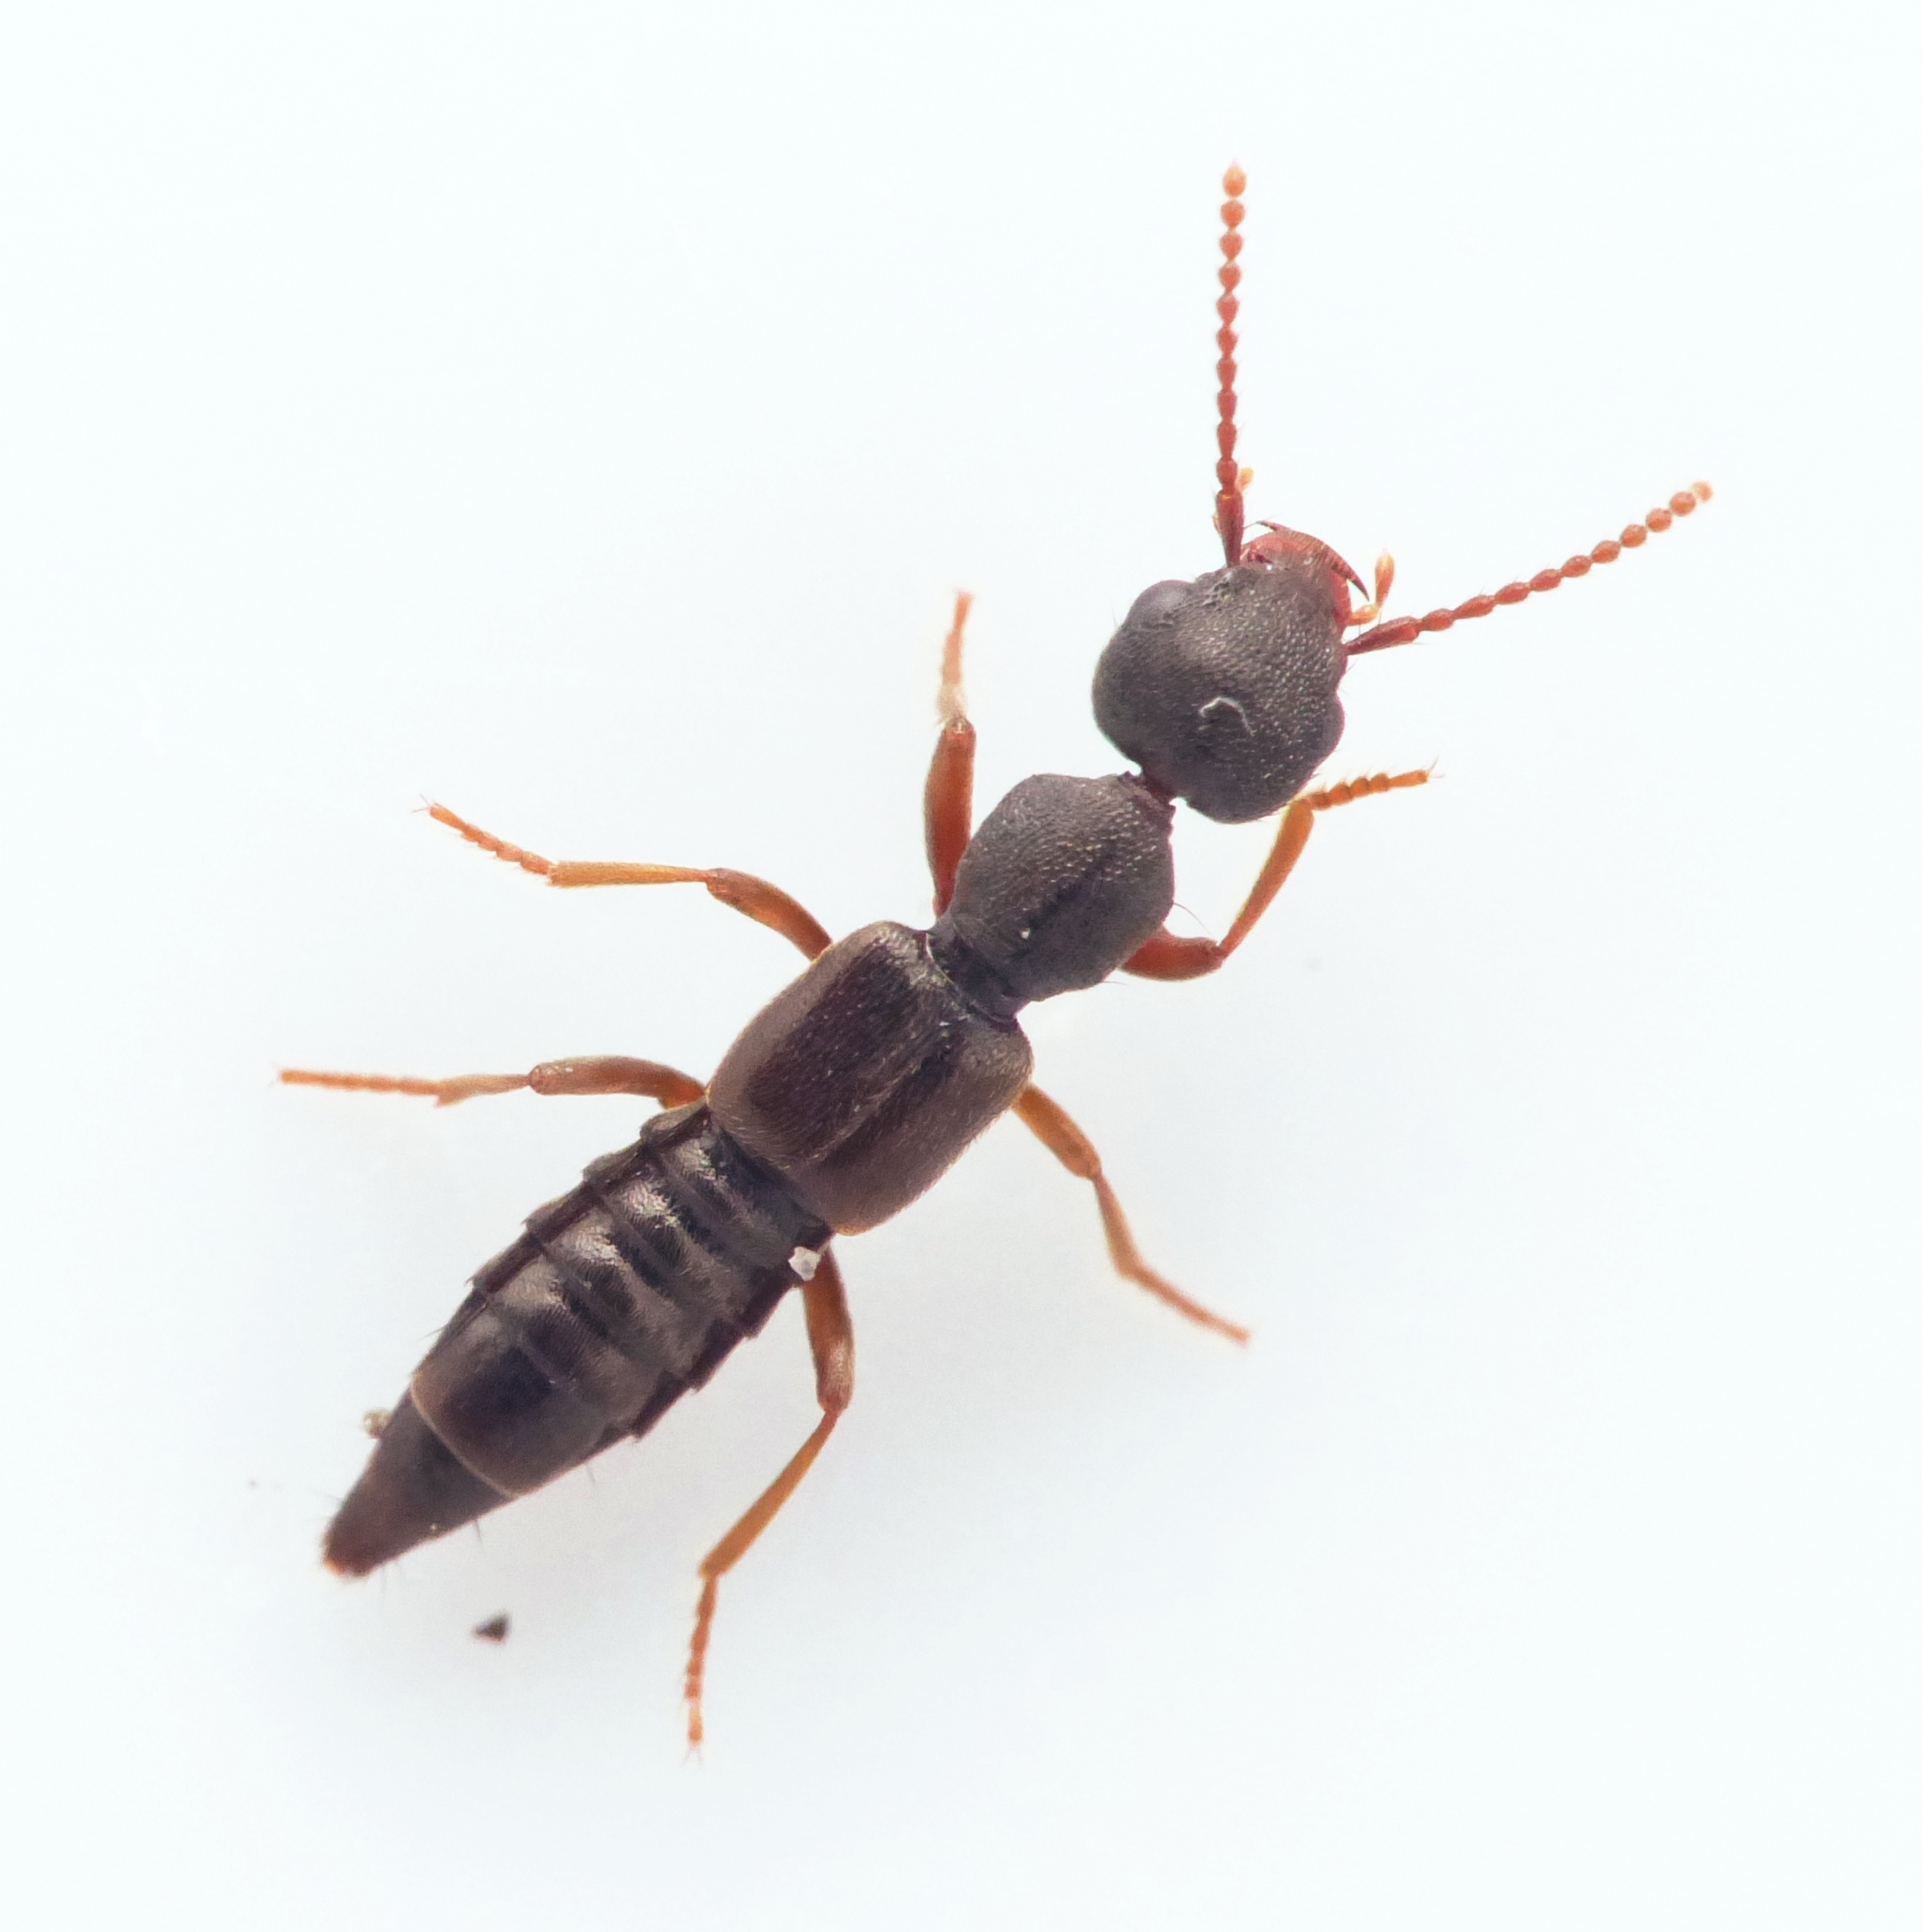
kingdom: Animalia
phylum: Arthropoda
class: Insecta
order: Coleoptera
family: Staphylinidae
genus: Rugilus
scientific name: Rugilus rufipes
